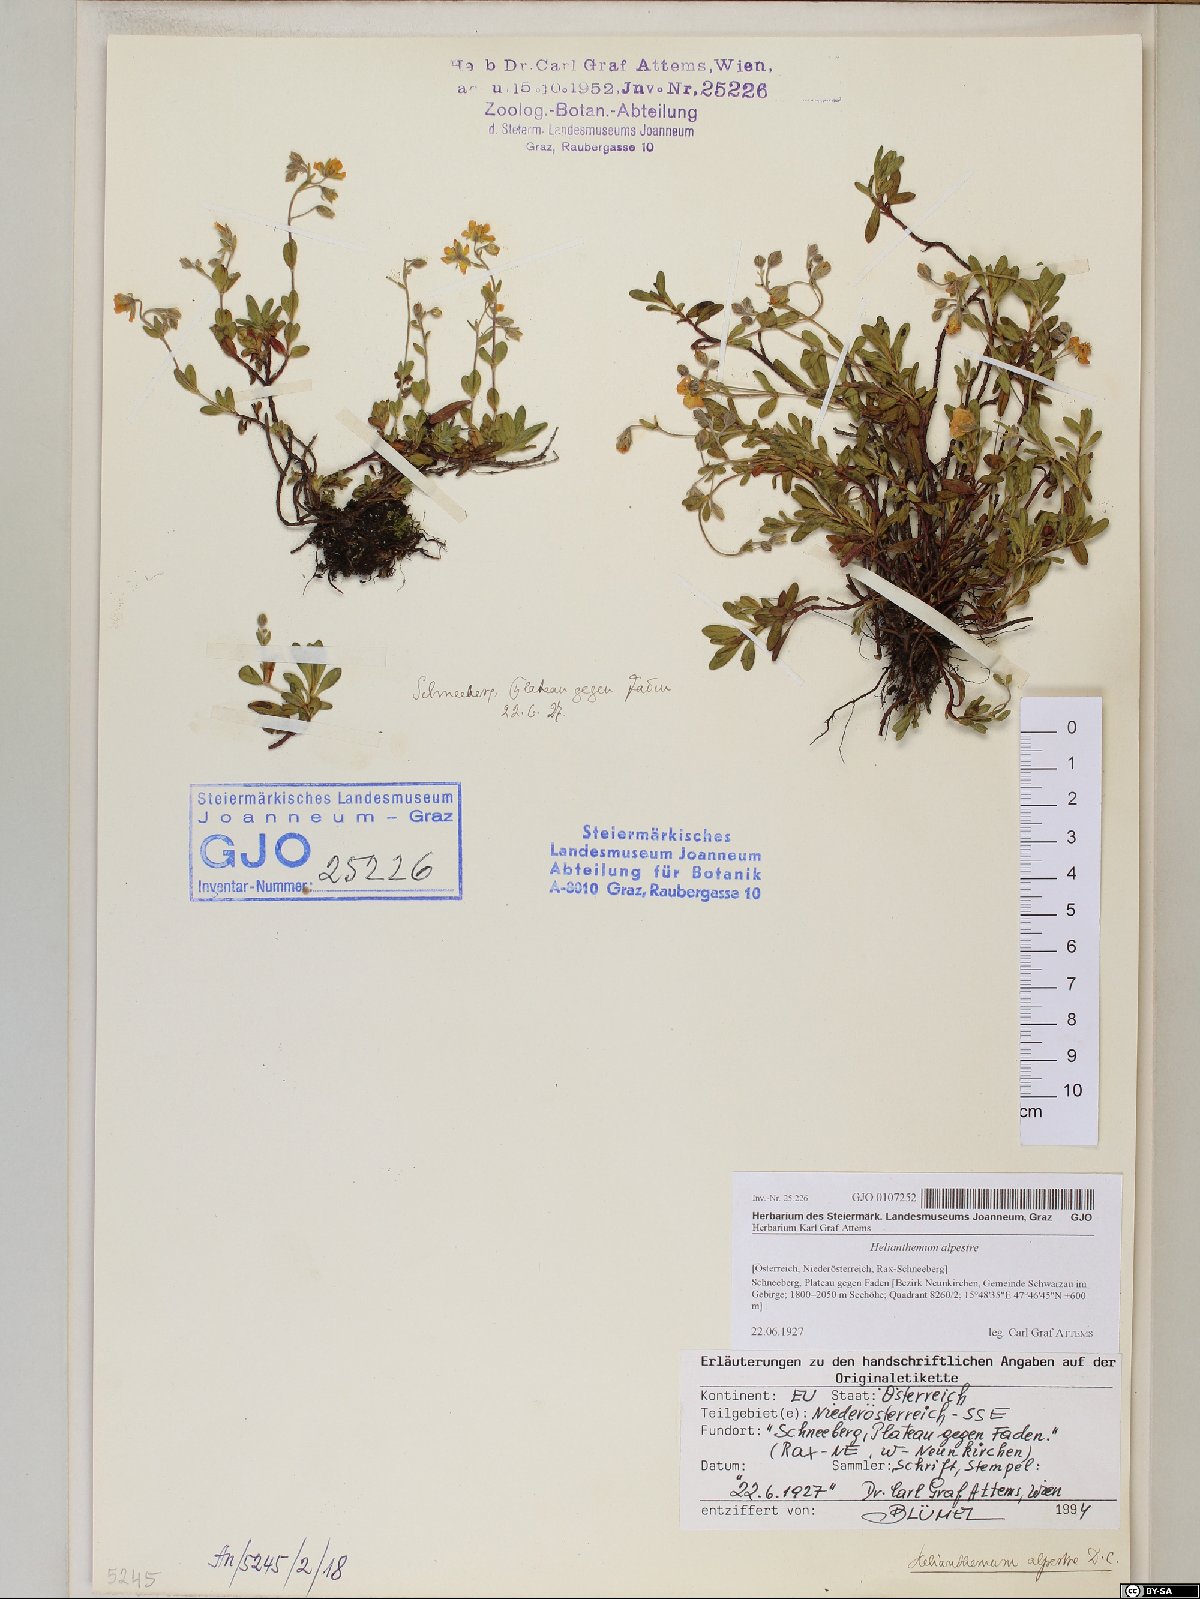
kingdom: Plantae
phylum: Tracheophyta
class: Magnoliopsida
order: Malvales
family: Cistaceae
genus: Helianthemum
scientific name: Helianthemum alpestre
